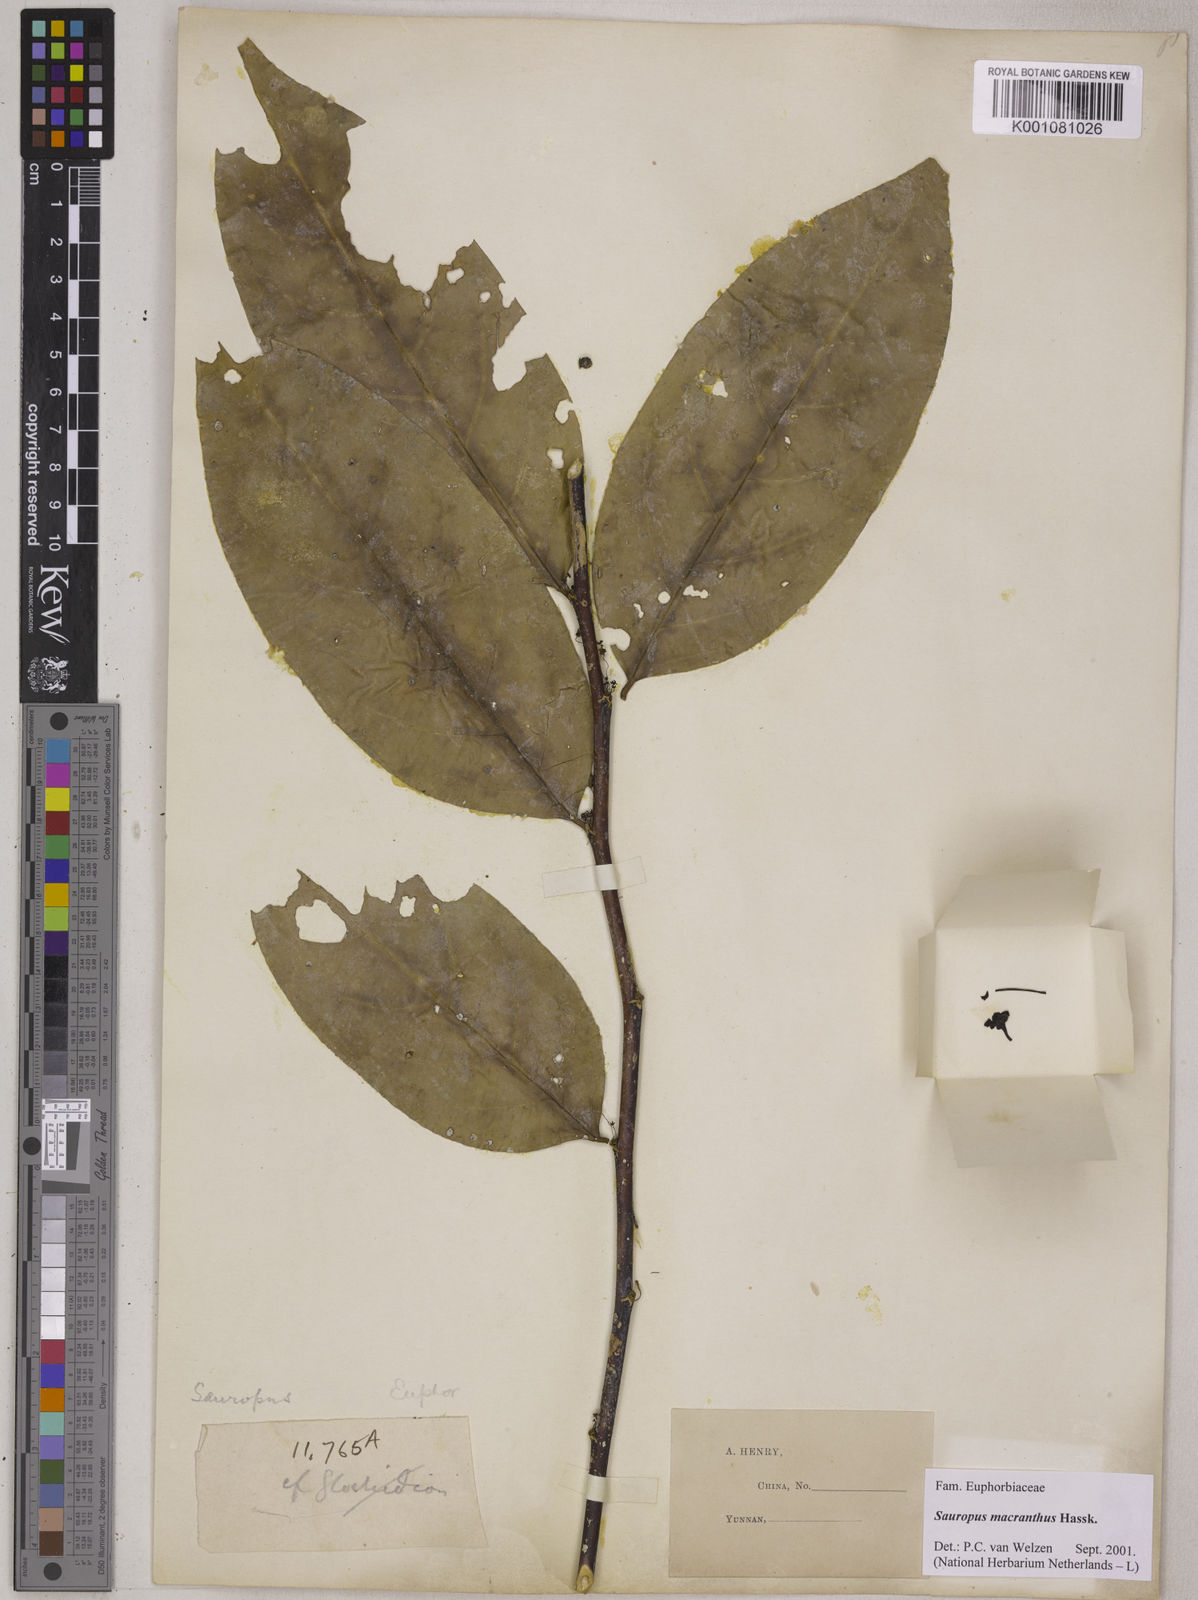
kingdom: Plantae
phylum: Tracheophyta
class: Magnoliopsida
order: Malpighiales
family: Phyllanthaceae
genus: Breynia
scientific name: Breynia macrantha
